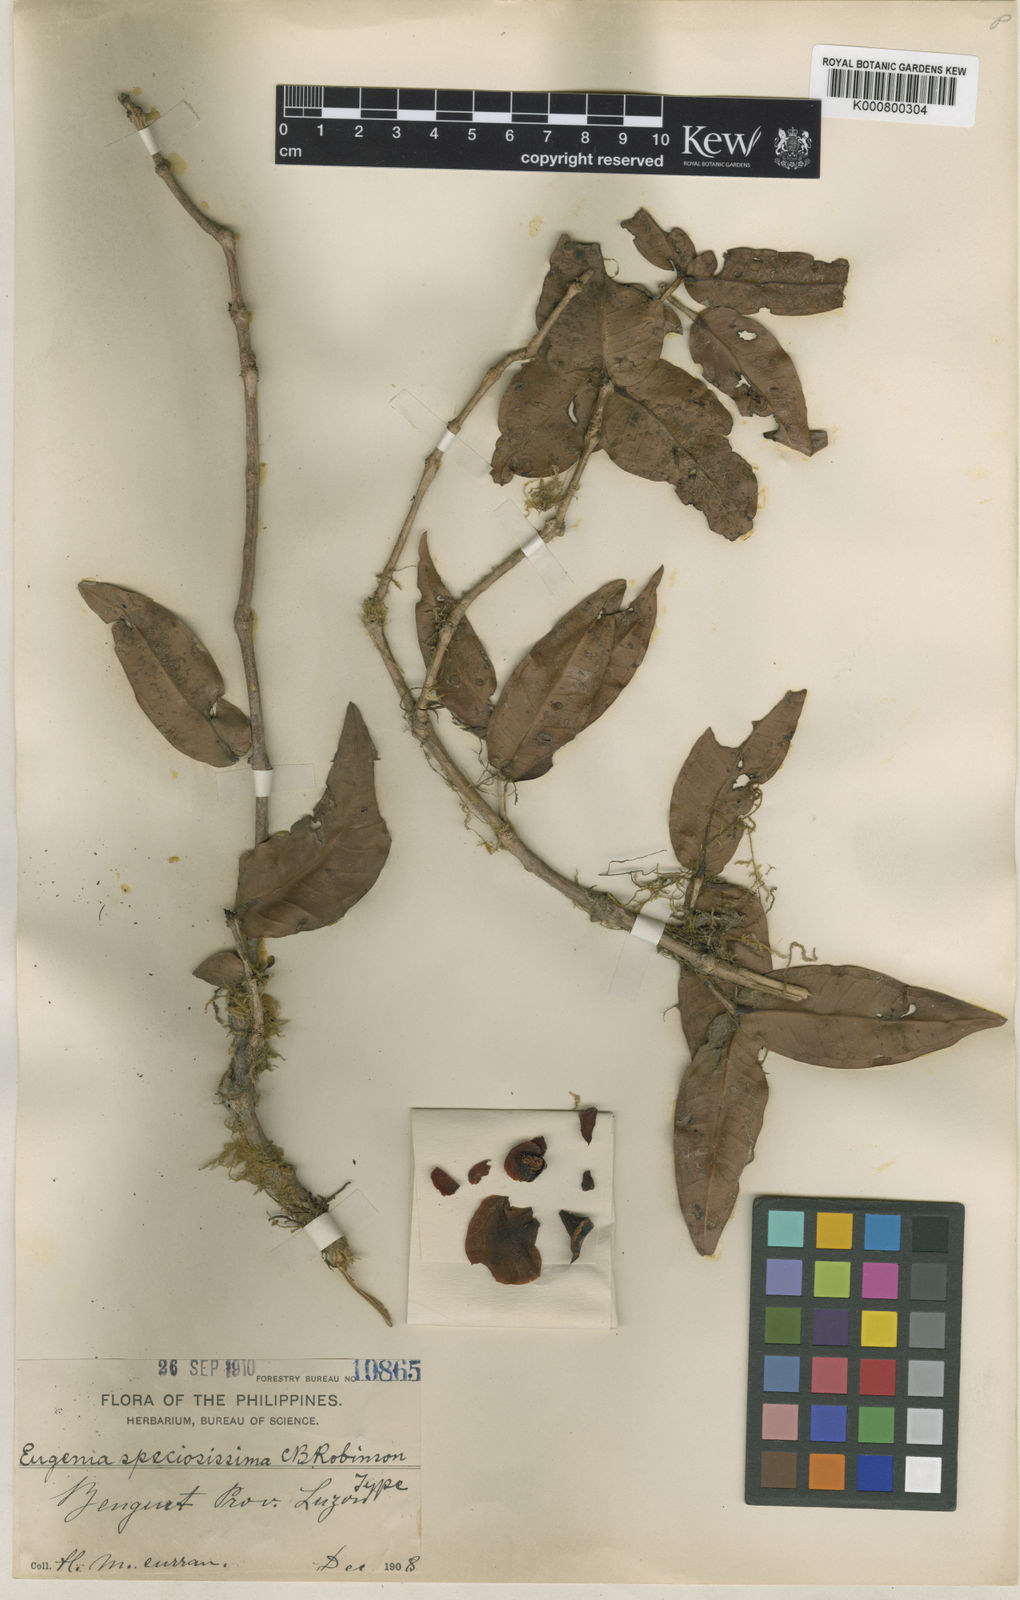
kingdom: Plantae
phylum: Tracheophyta
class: Magnoliopsida
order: Myrtales
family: Myrtaceae
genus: Syzygium
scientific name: Syzygium speciosissimum
